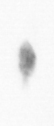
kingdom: Animalia
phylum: Arthropoda
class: Copepoda
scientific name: Copepoda
